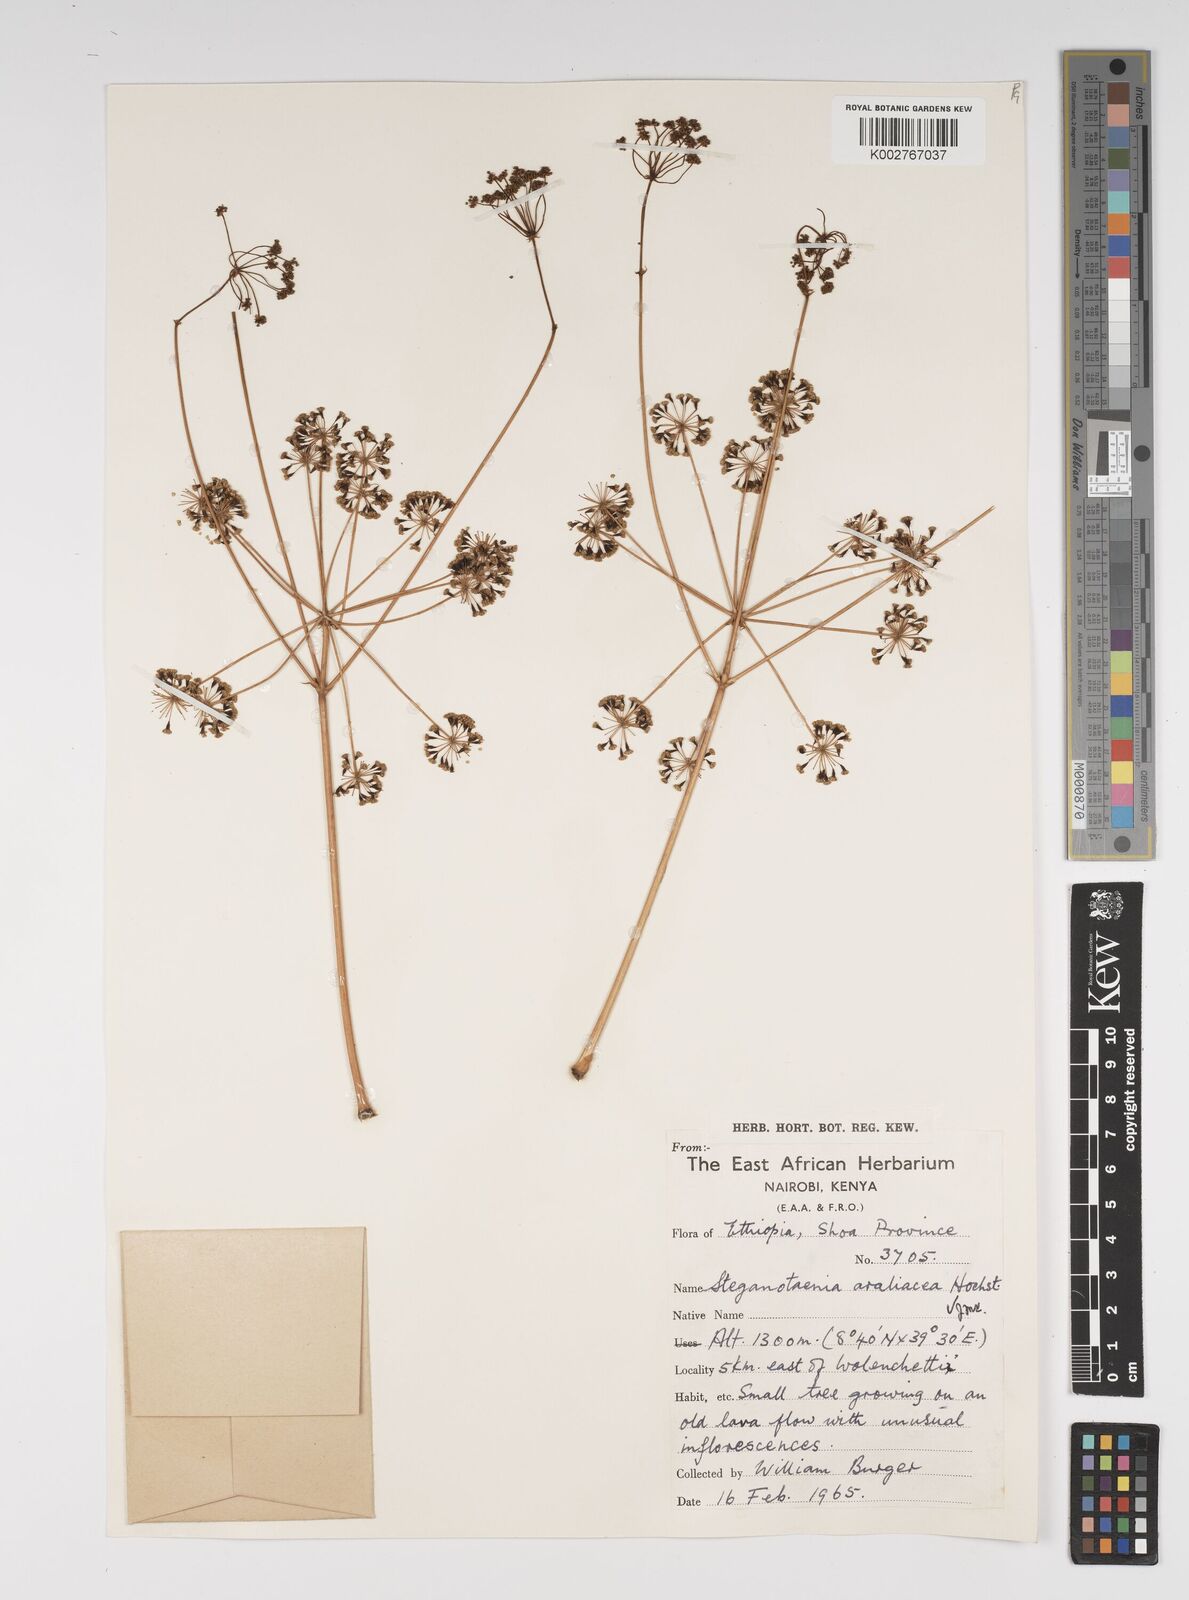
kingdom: Plantae
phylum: Tracheophyta
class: Magnoliopsida
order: Apiales
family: Apiaceae
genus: Steganotaenia
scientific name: Steganotaenia araliacea
